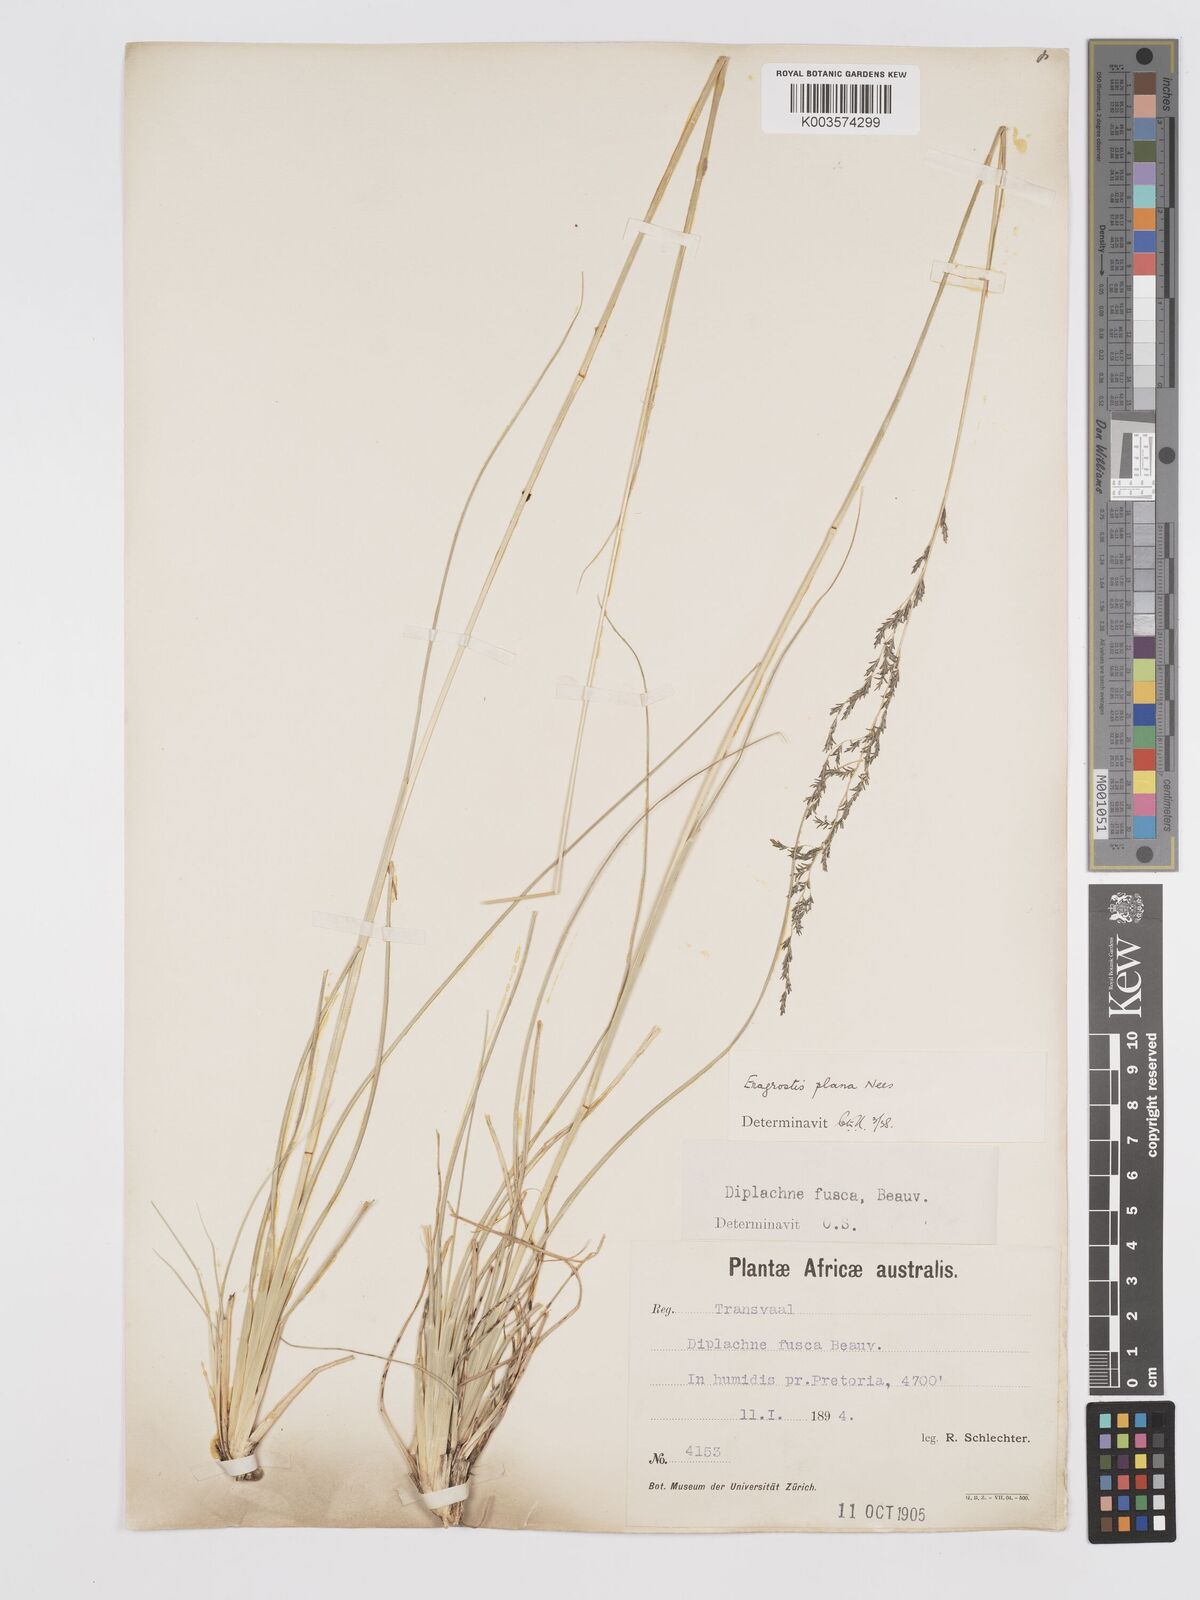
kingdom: Plantae
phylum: Tracheophyta
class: Liliopsida
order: Poales
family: Poaceae
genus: Eragrostis
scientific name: Eragrostis plana
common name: South african lovegrass
